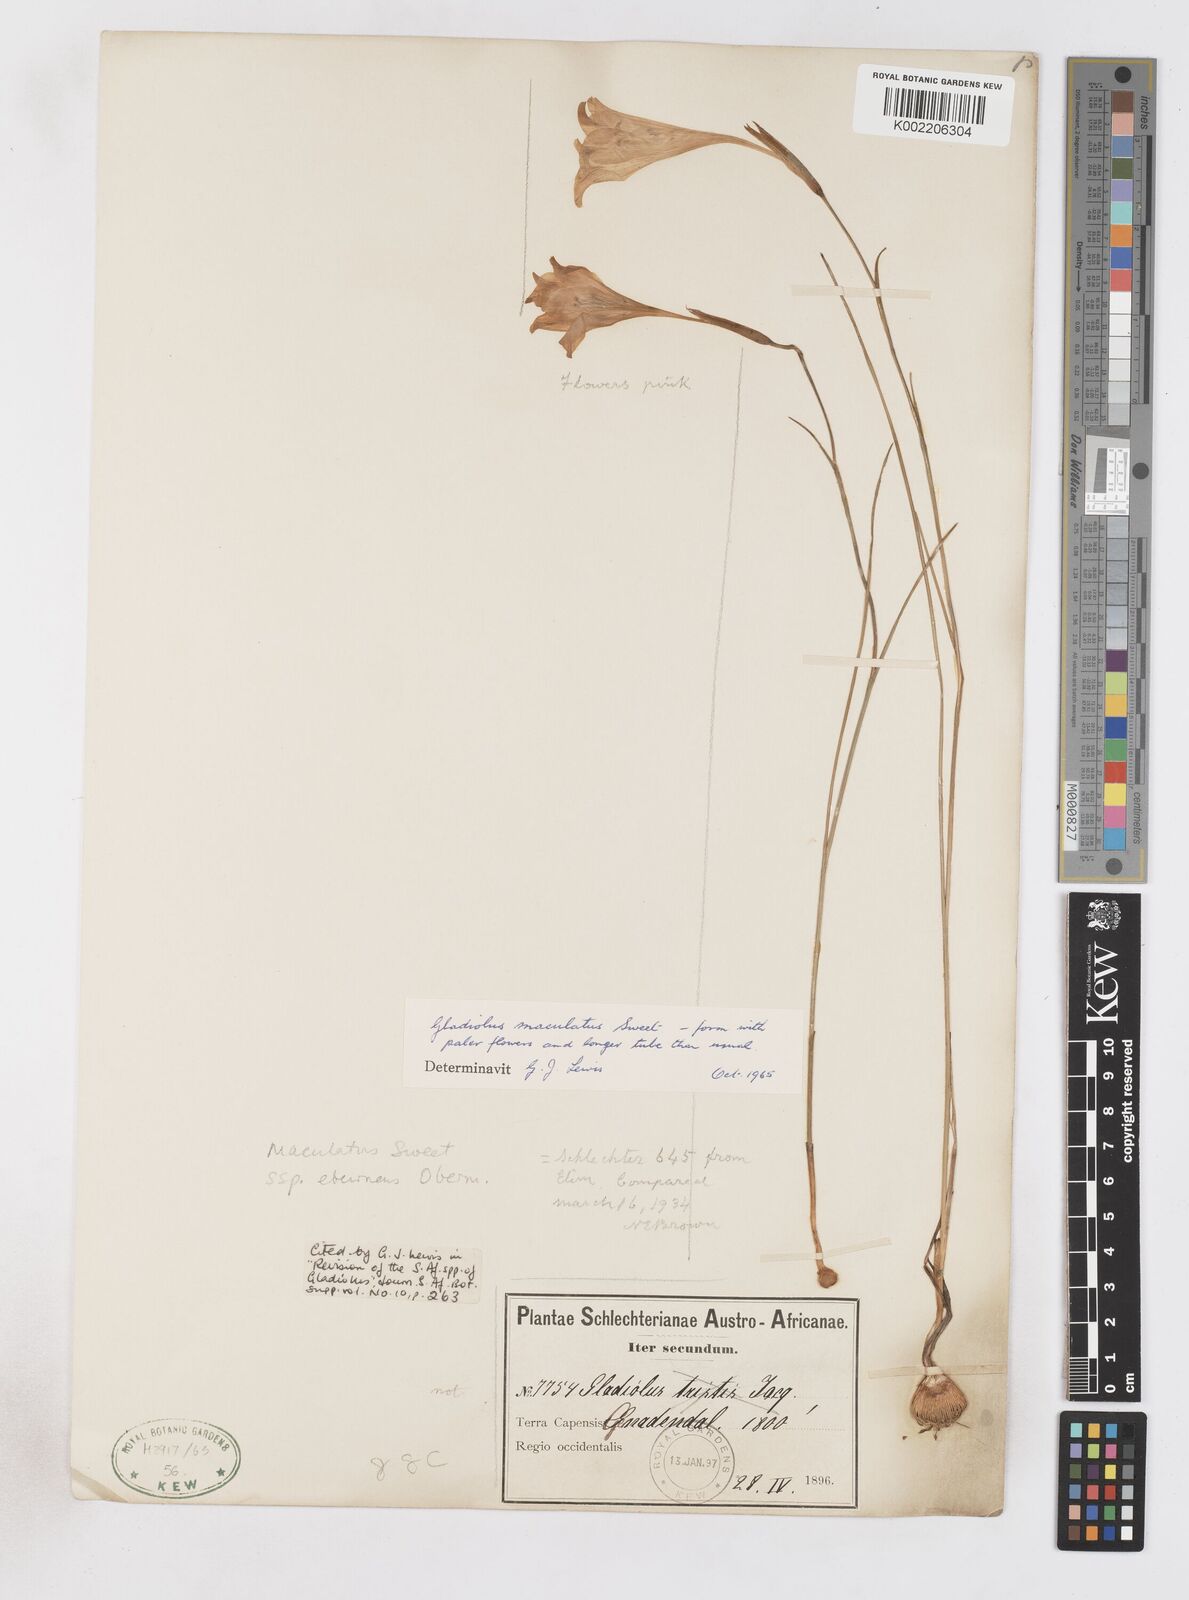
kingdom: Plantae
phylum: Tracheophyta
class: Liliopsida
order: Asparagales
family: Iridaceae
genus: Gladiolus
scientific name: Gladiolus maculatus
